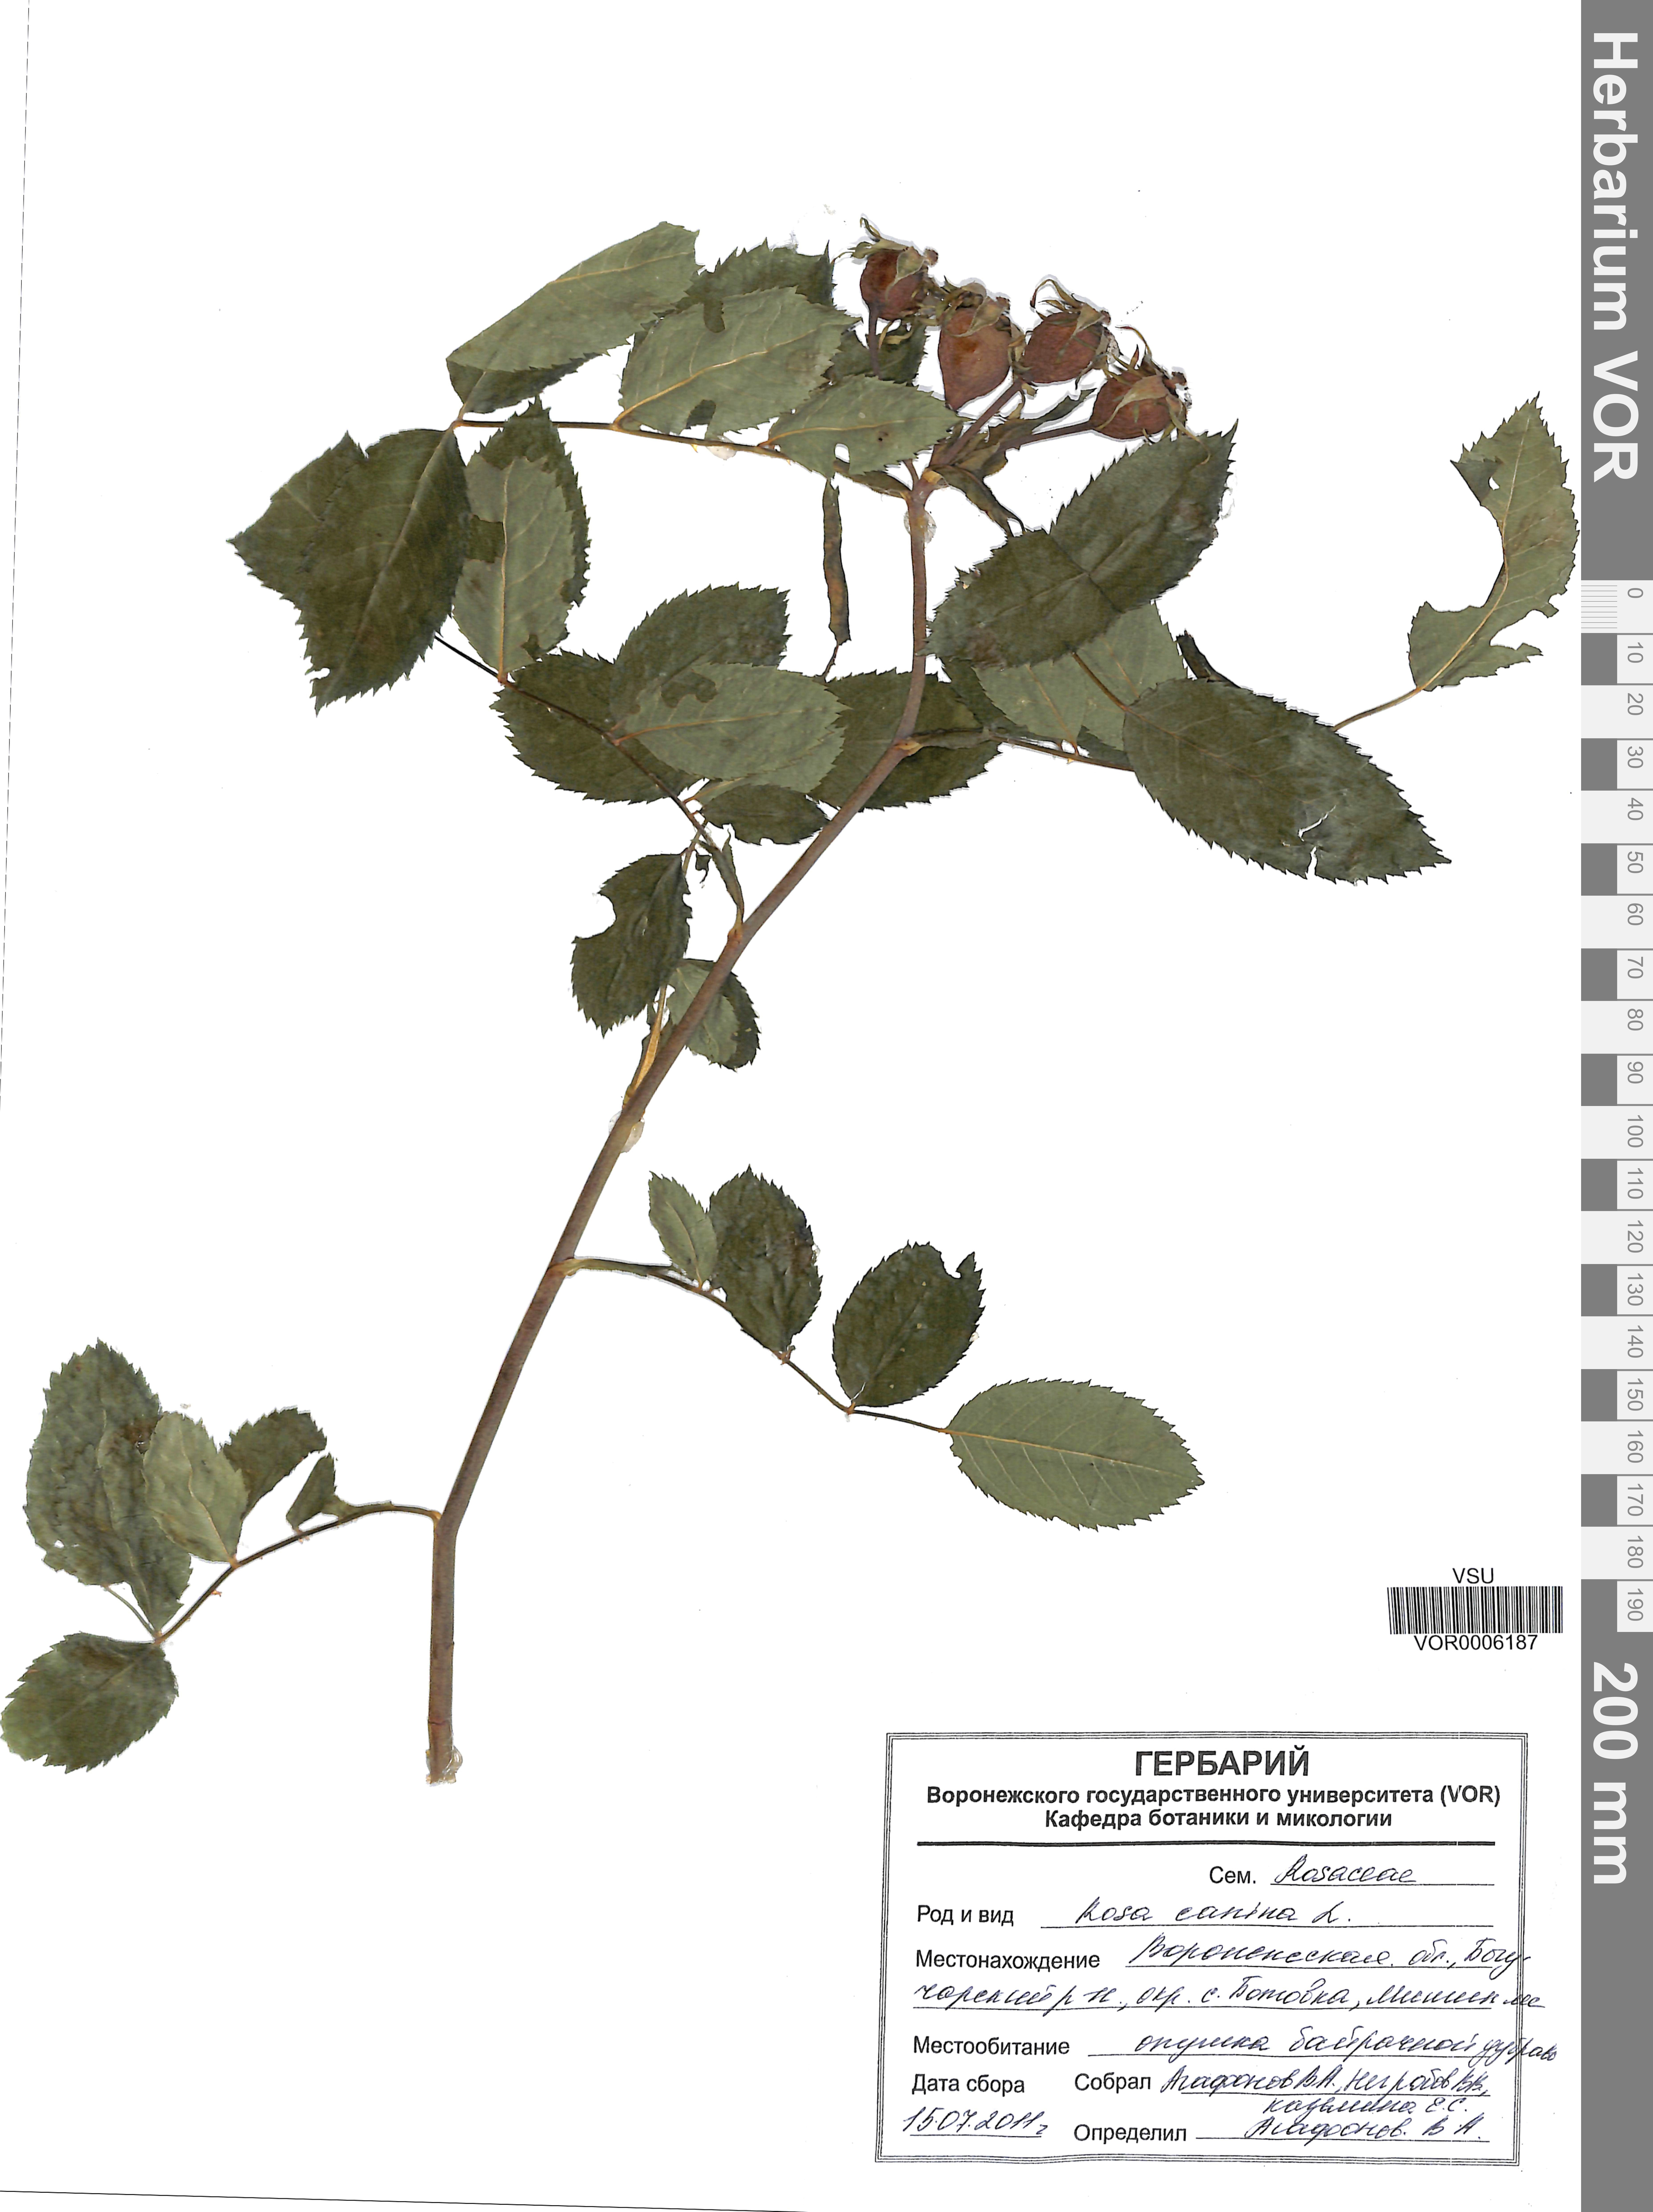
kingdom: Plantae
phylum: Tracheophyta
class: Magnoliopsida
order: Rosales
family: Rosaceae
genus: Rosa
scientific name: Rosa canina
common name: Dog rose
